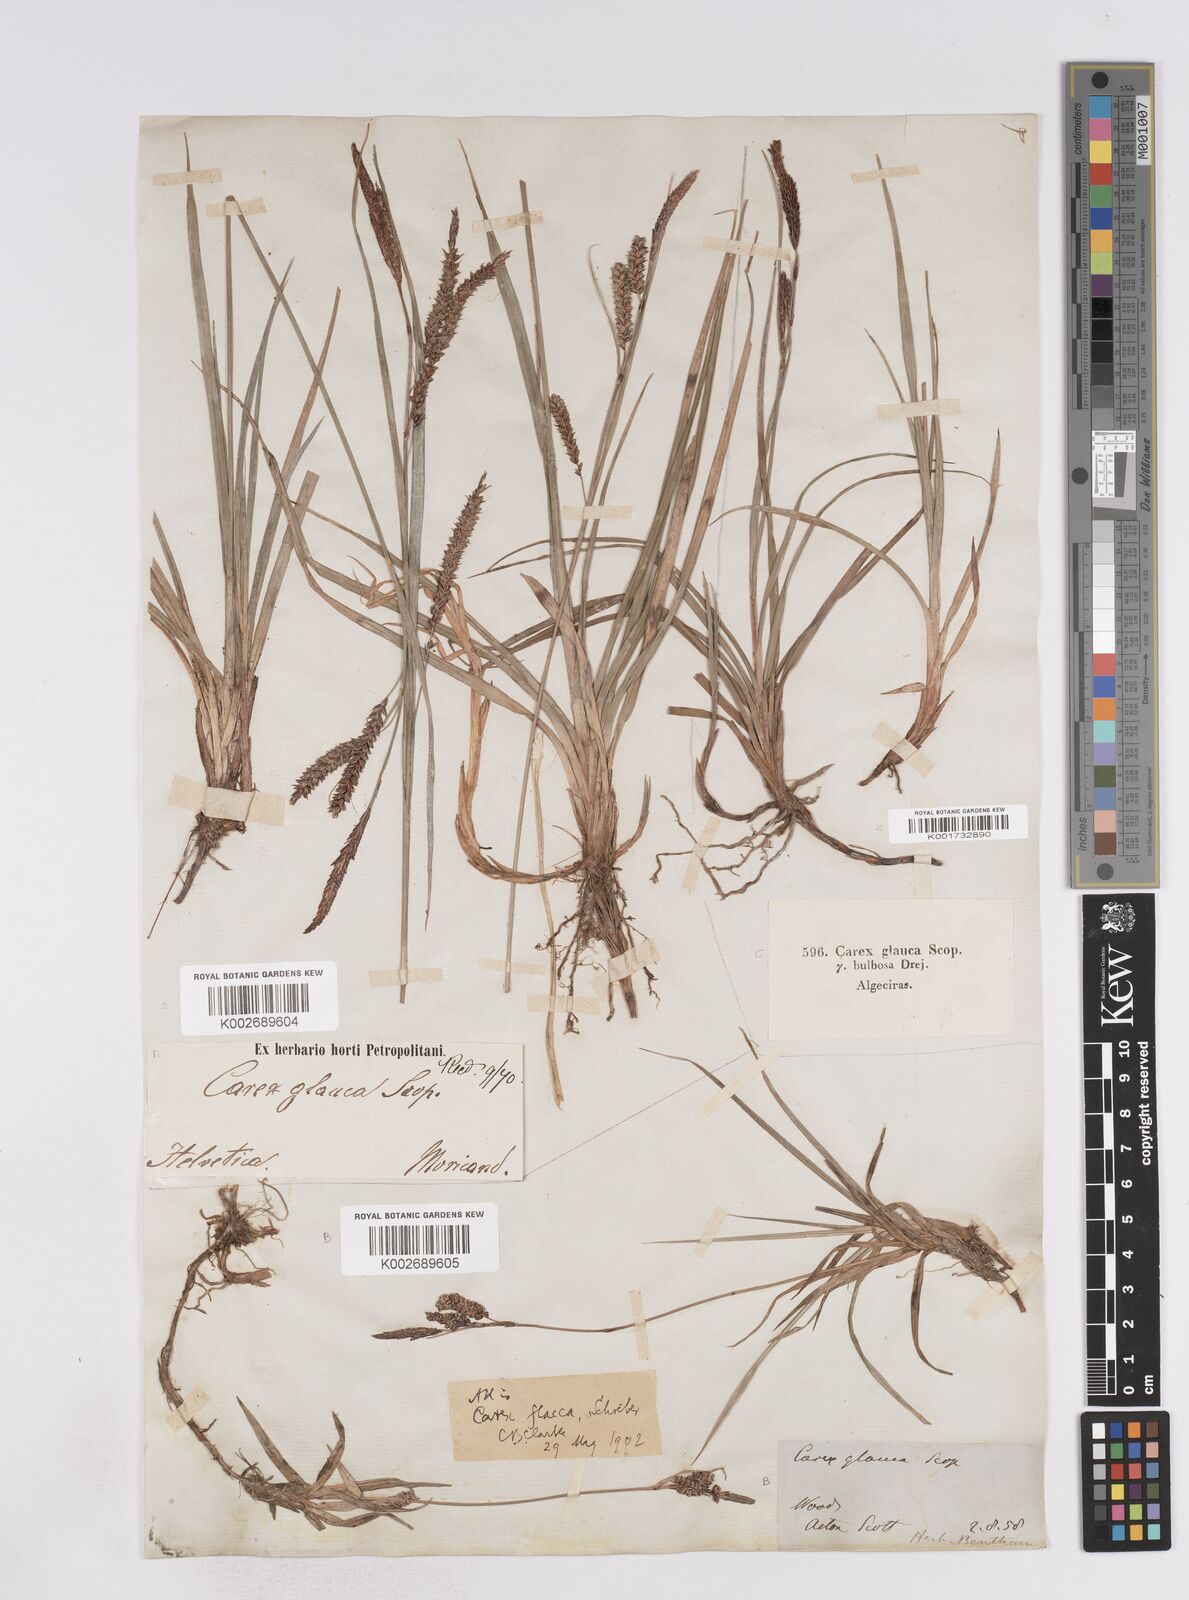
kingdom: Plantae
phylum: Tracheophyta
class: Liliopsida
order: Poales
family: Cyperaceae
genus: Carex
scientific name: Carex flacca
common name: Glaucous sedge
